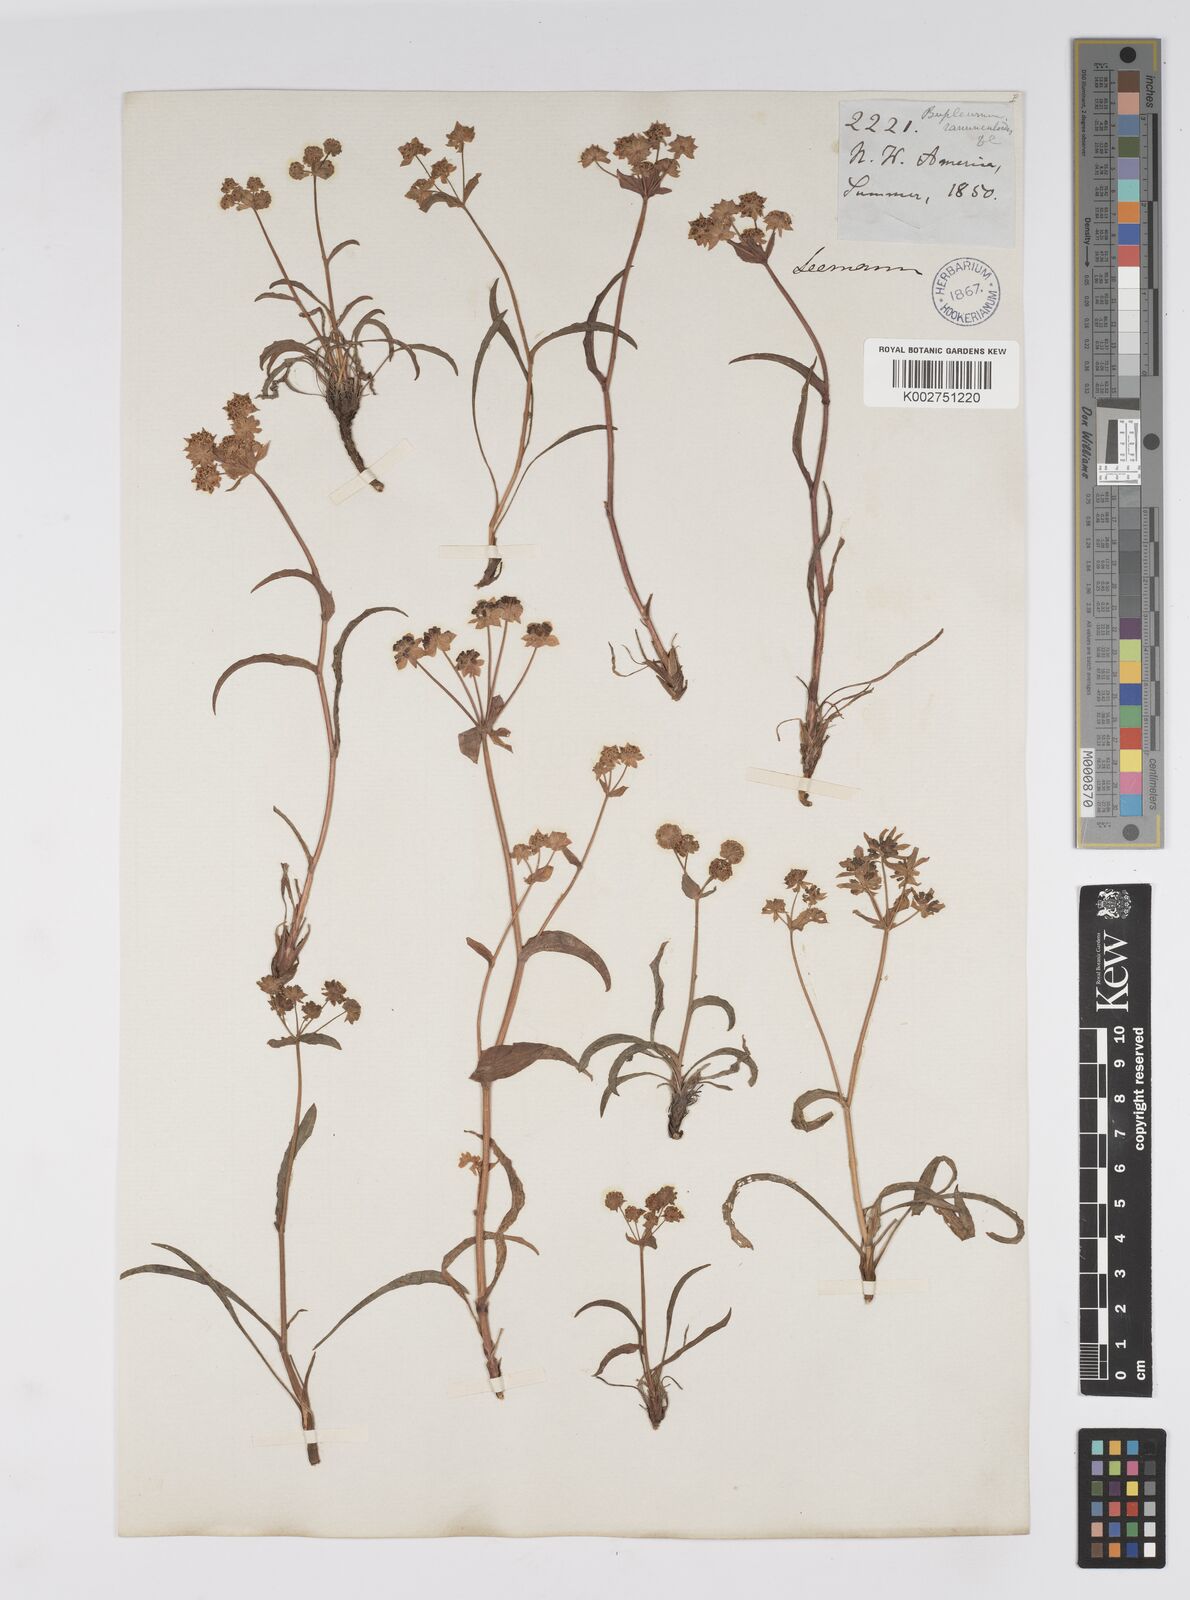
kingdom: Plantae
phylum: Tracheophyta
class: Magnoliopsida
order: Apiales
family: Apiaceae
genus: Bupleurum
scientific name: Bupleurum americanum
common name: American thoroughwax
